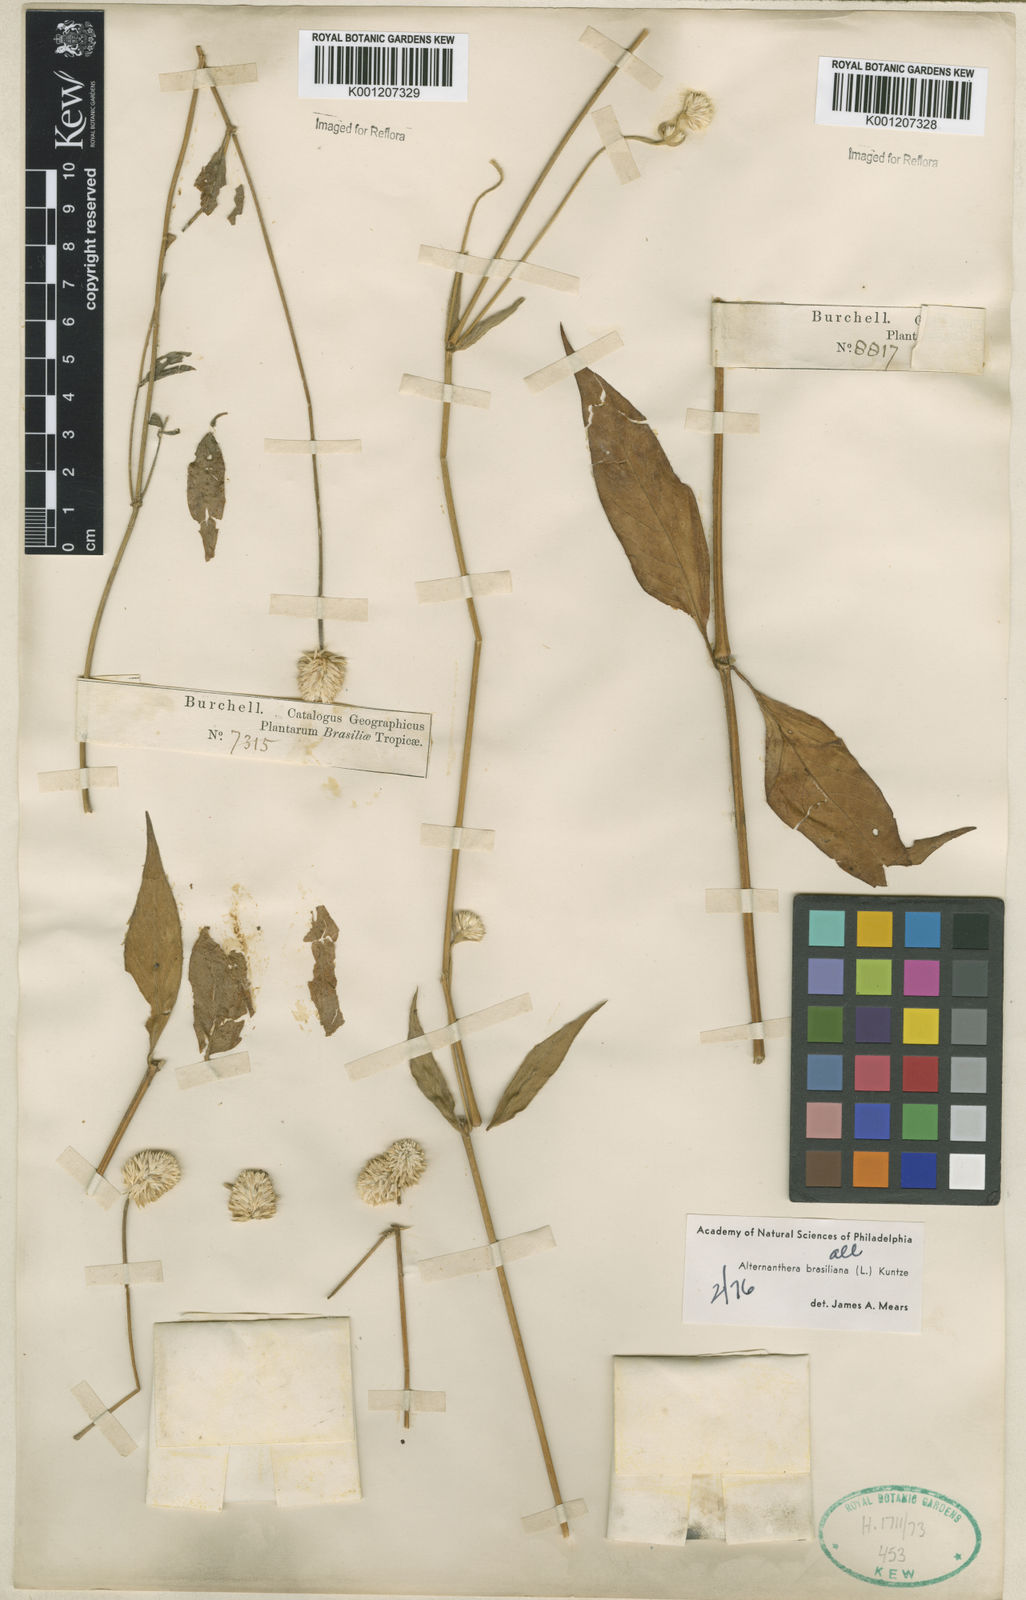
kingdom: Plantae
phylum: Tracheophyta
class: Magnoliopsida
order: Caryophyllales
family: Amaranthaceae
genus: Alternanthera
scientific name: Alternanthera brasiliana
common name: Brazilian joyweed
